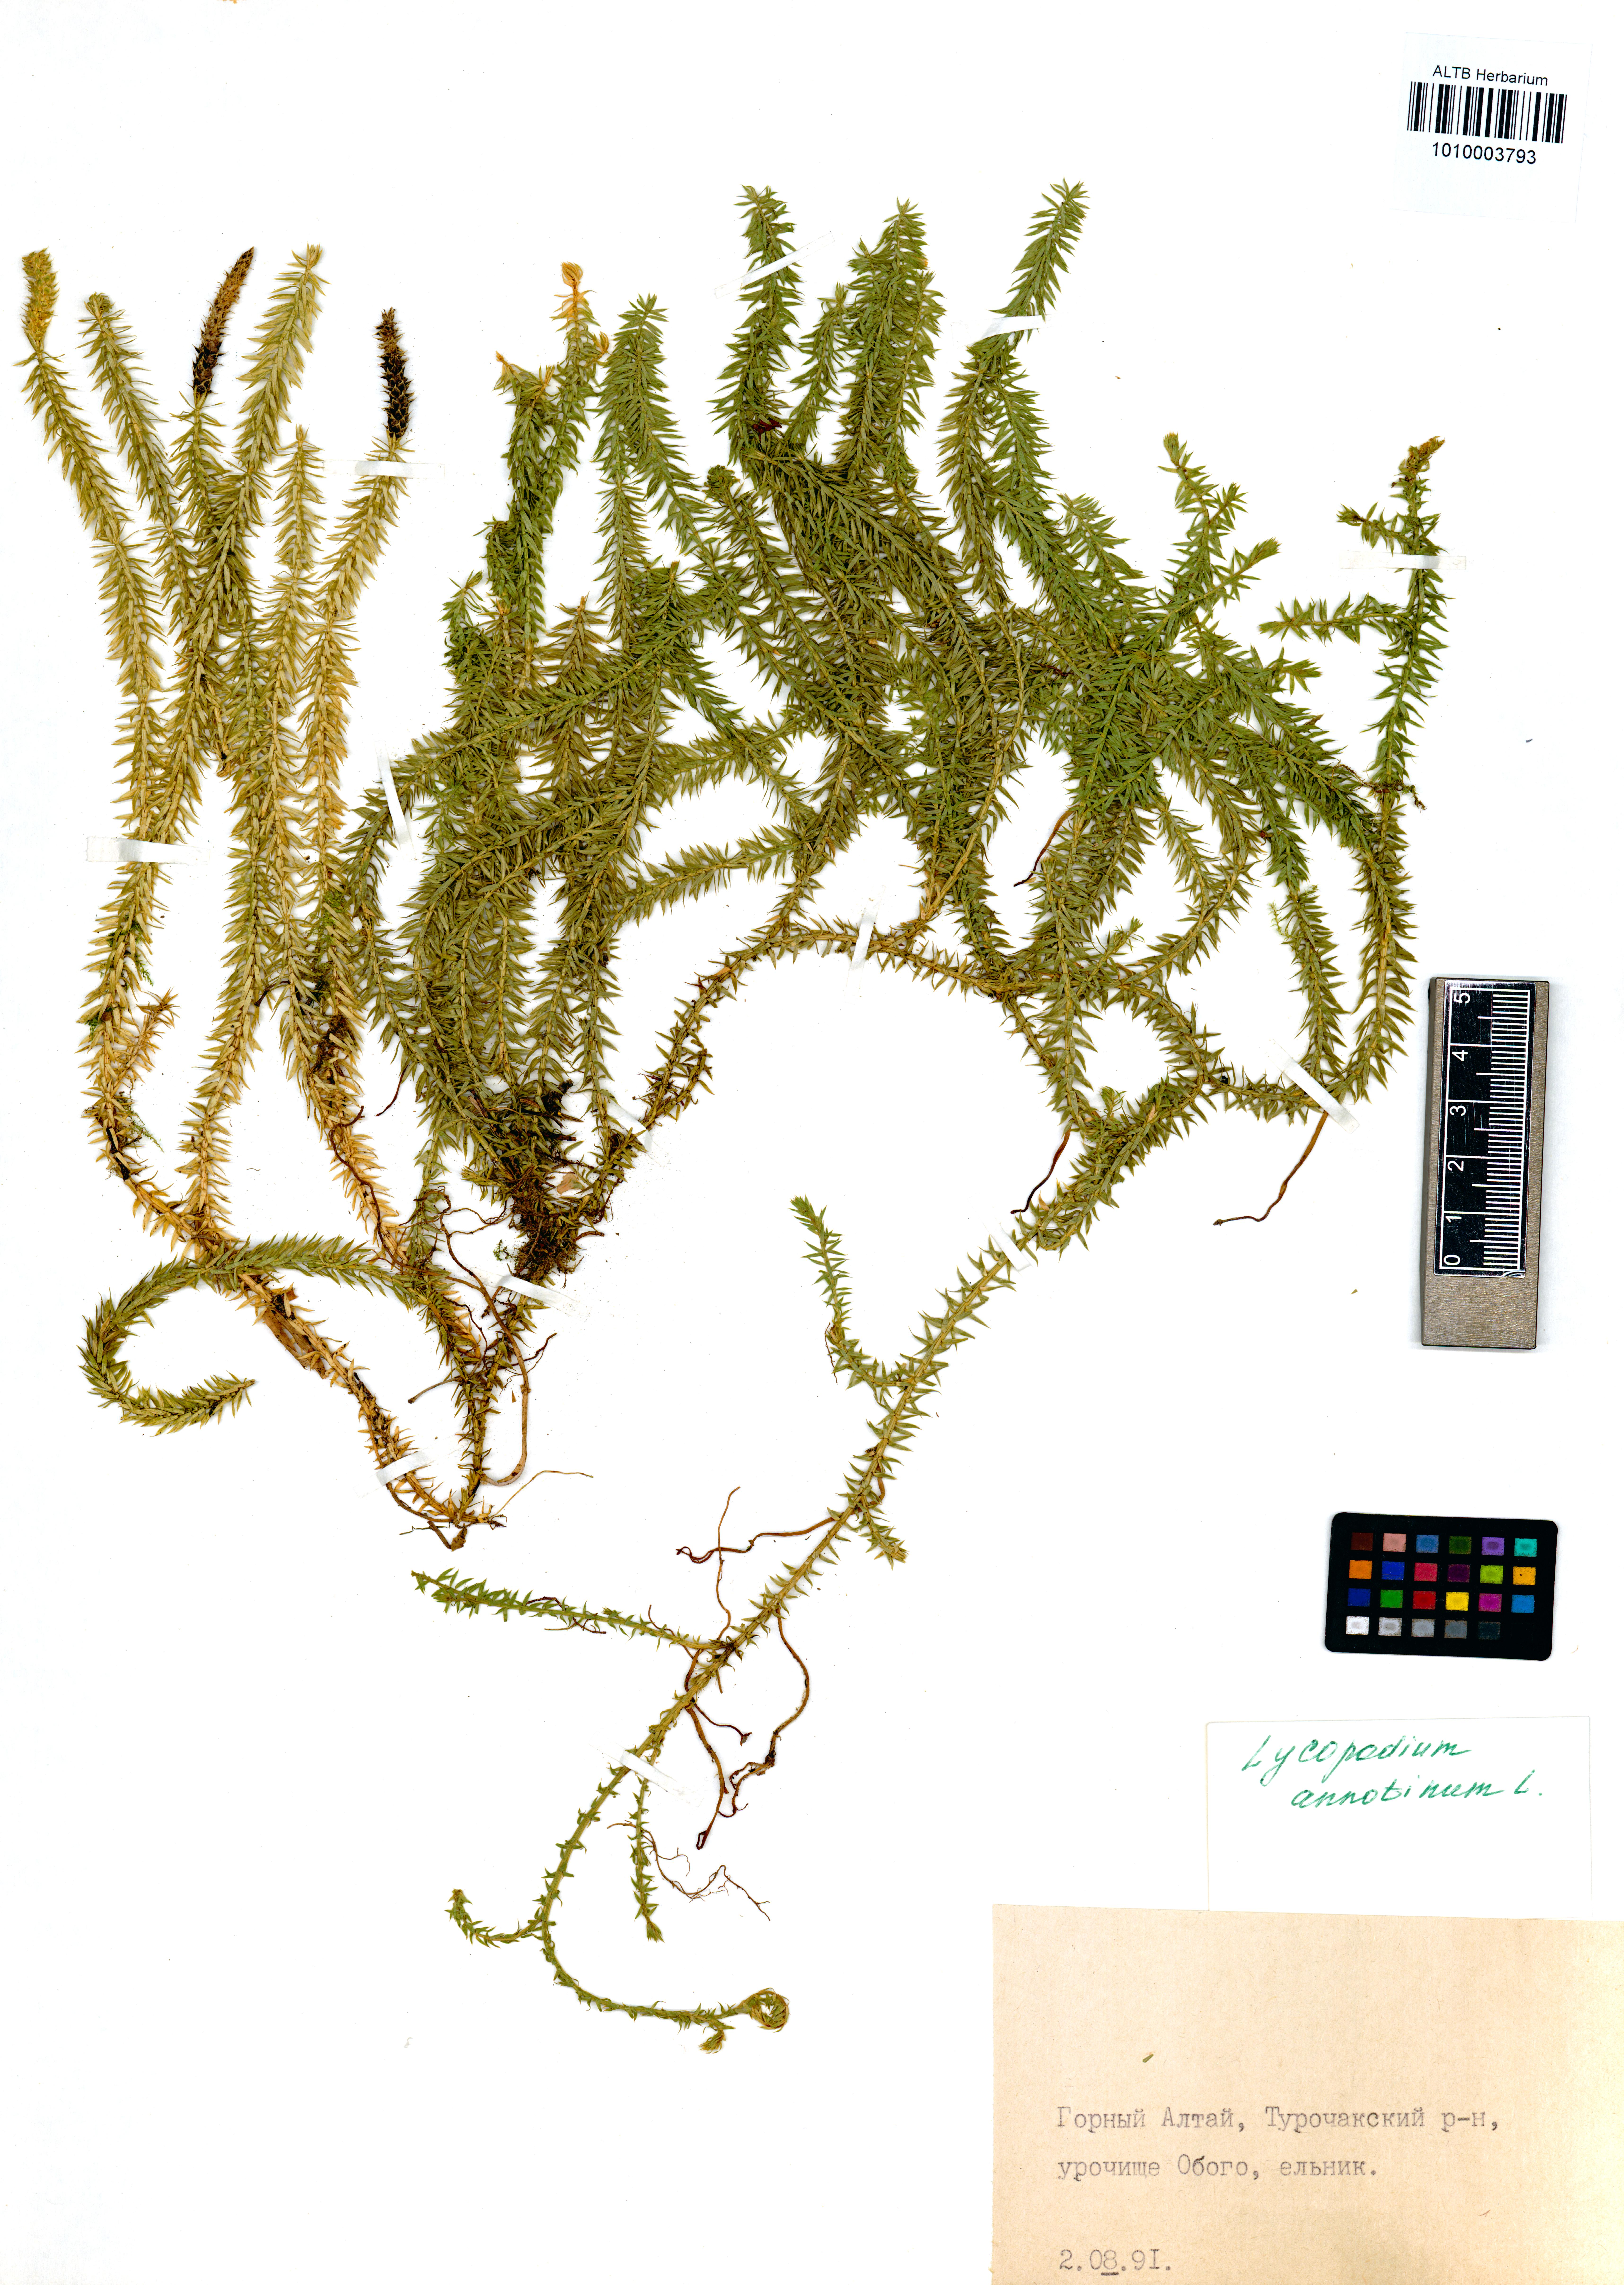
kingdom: Plantae
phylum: Tracheophyta
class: Lycopodiopsida
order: Lycopodiales
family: Lycopodiaceae
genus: Spinulum
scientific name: Spinulum annotinum
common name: Interrupted club-moss
